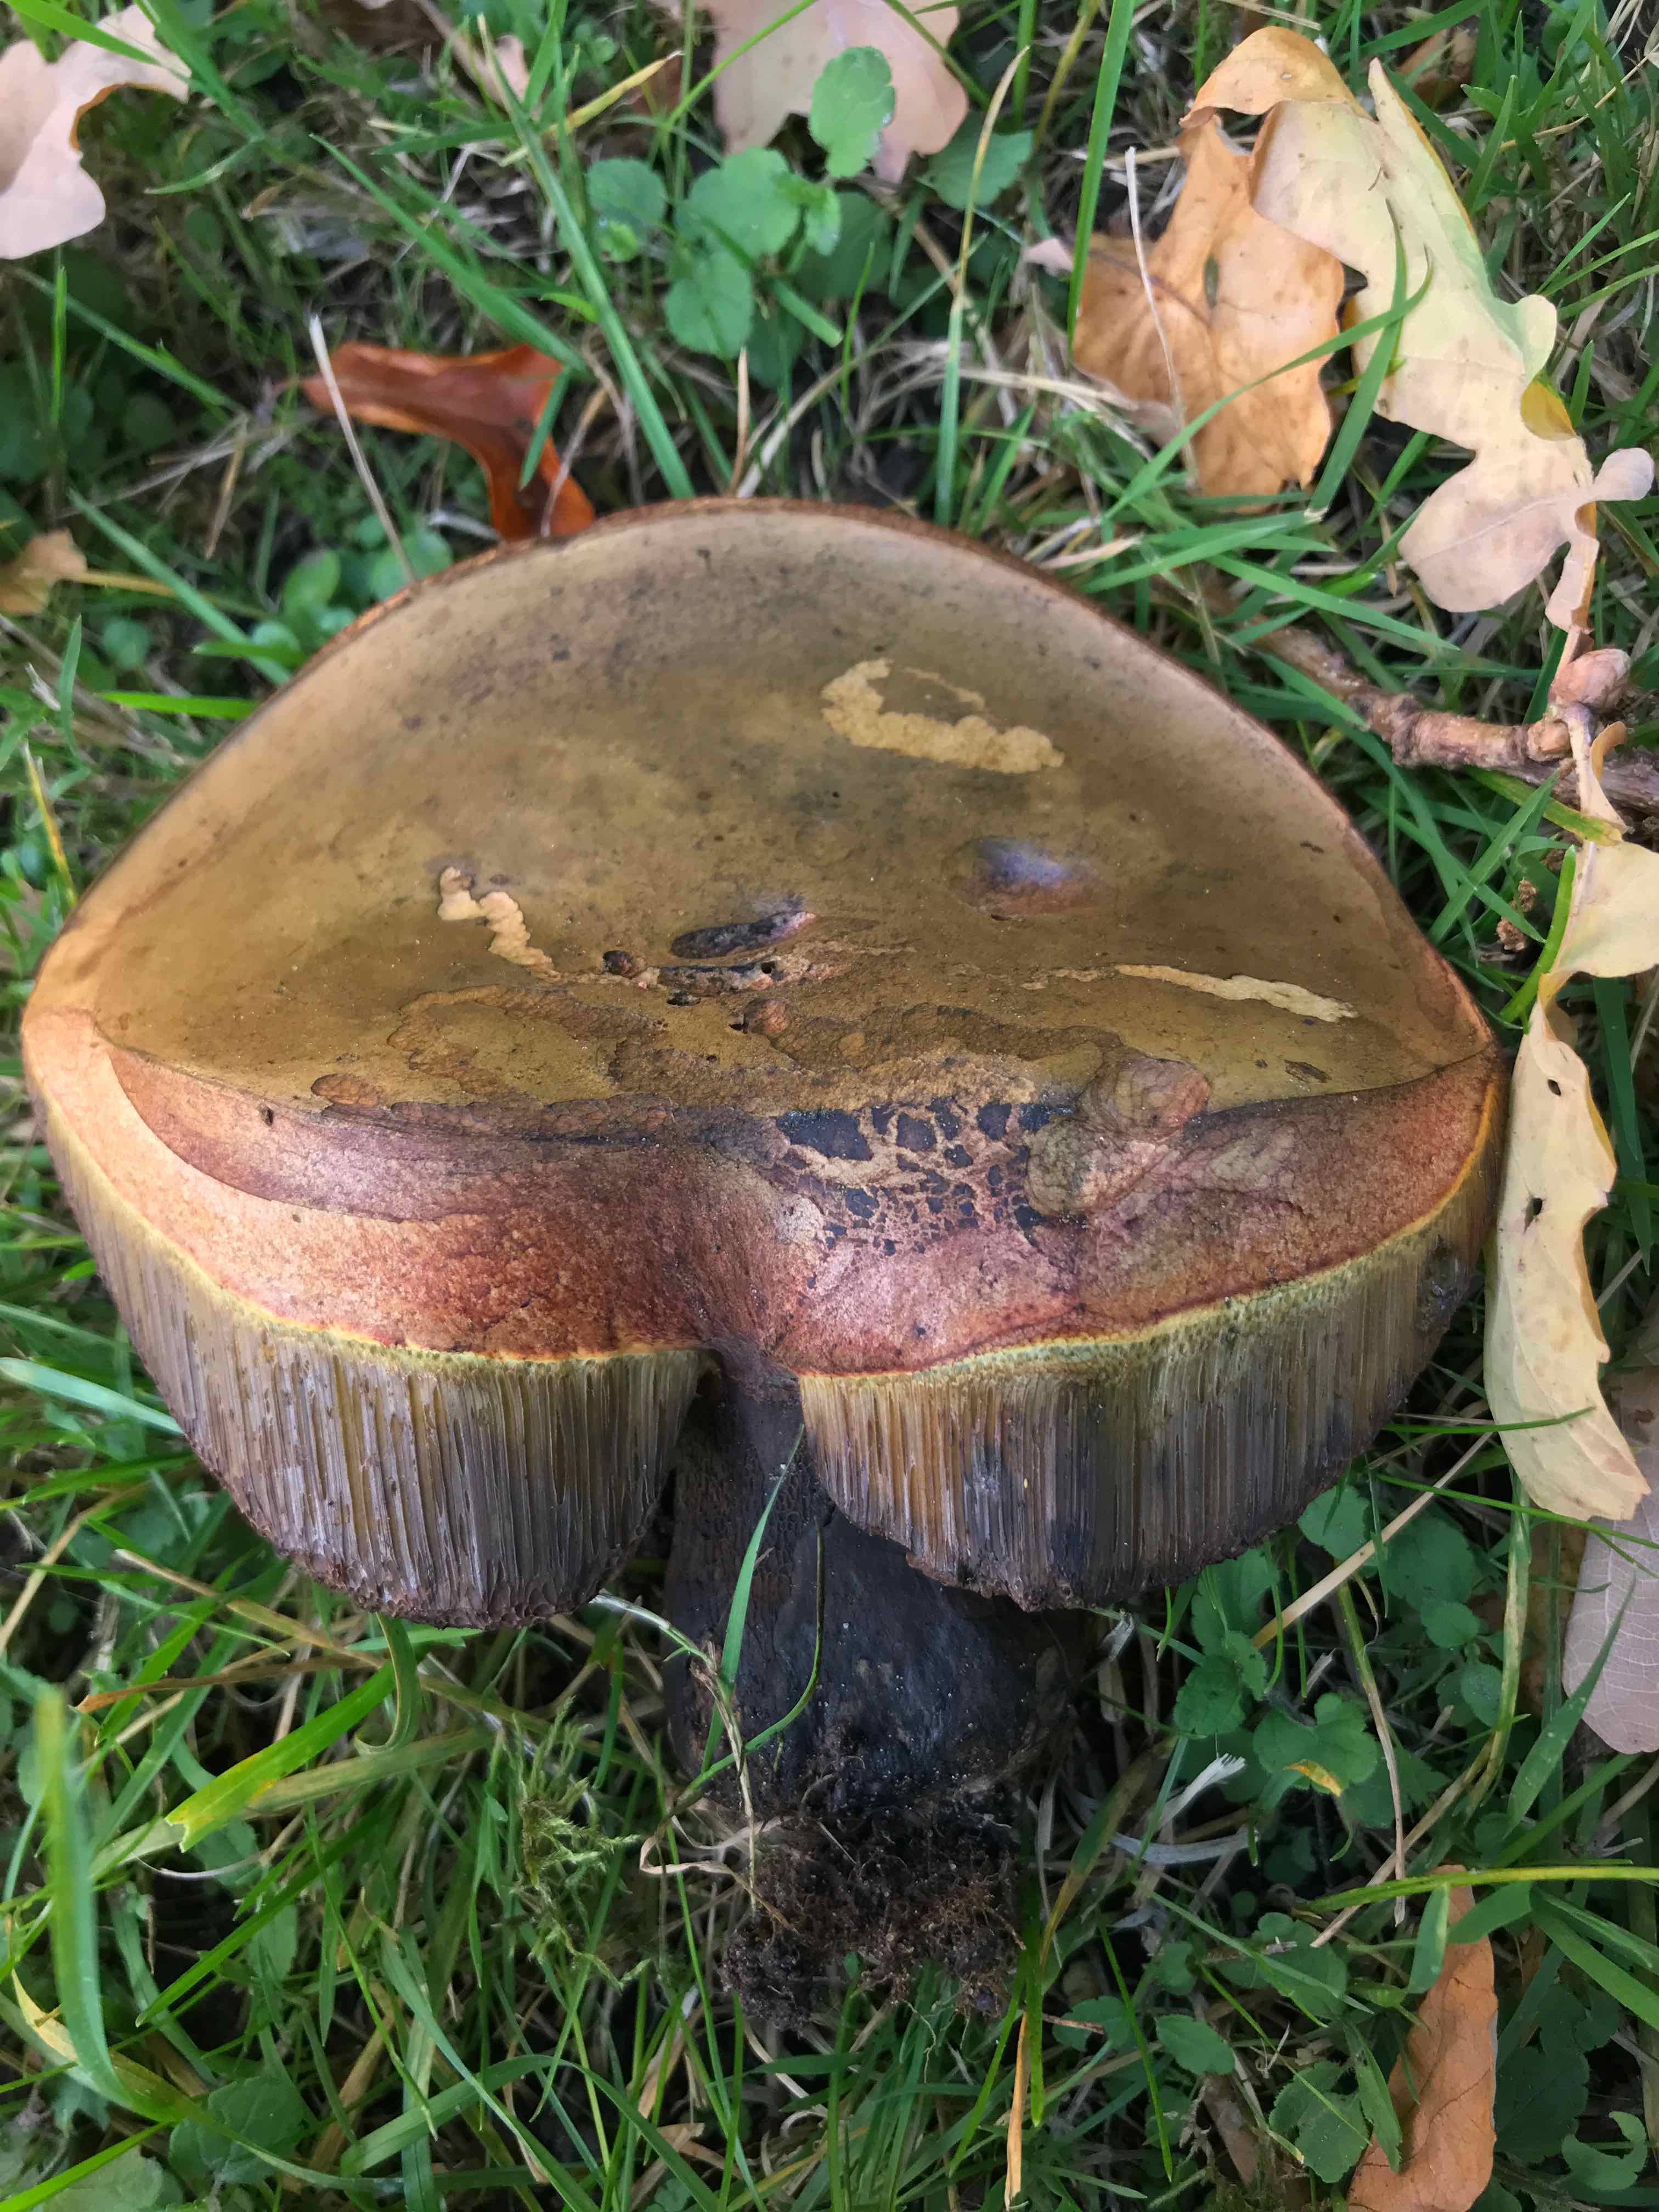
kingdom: Fungi
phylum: Basidiomycota
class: Agaricomycetes
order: Boletales
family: Boletaceae
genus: Suillellus
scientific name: Suillellus luridus
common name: netstokket indigorørhat
